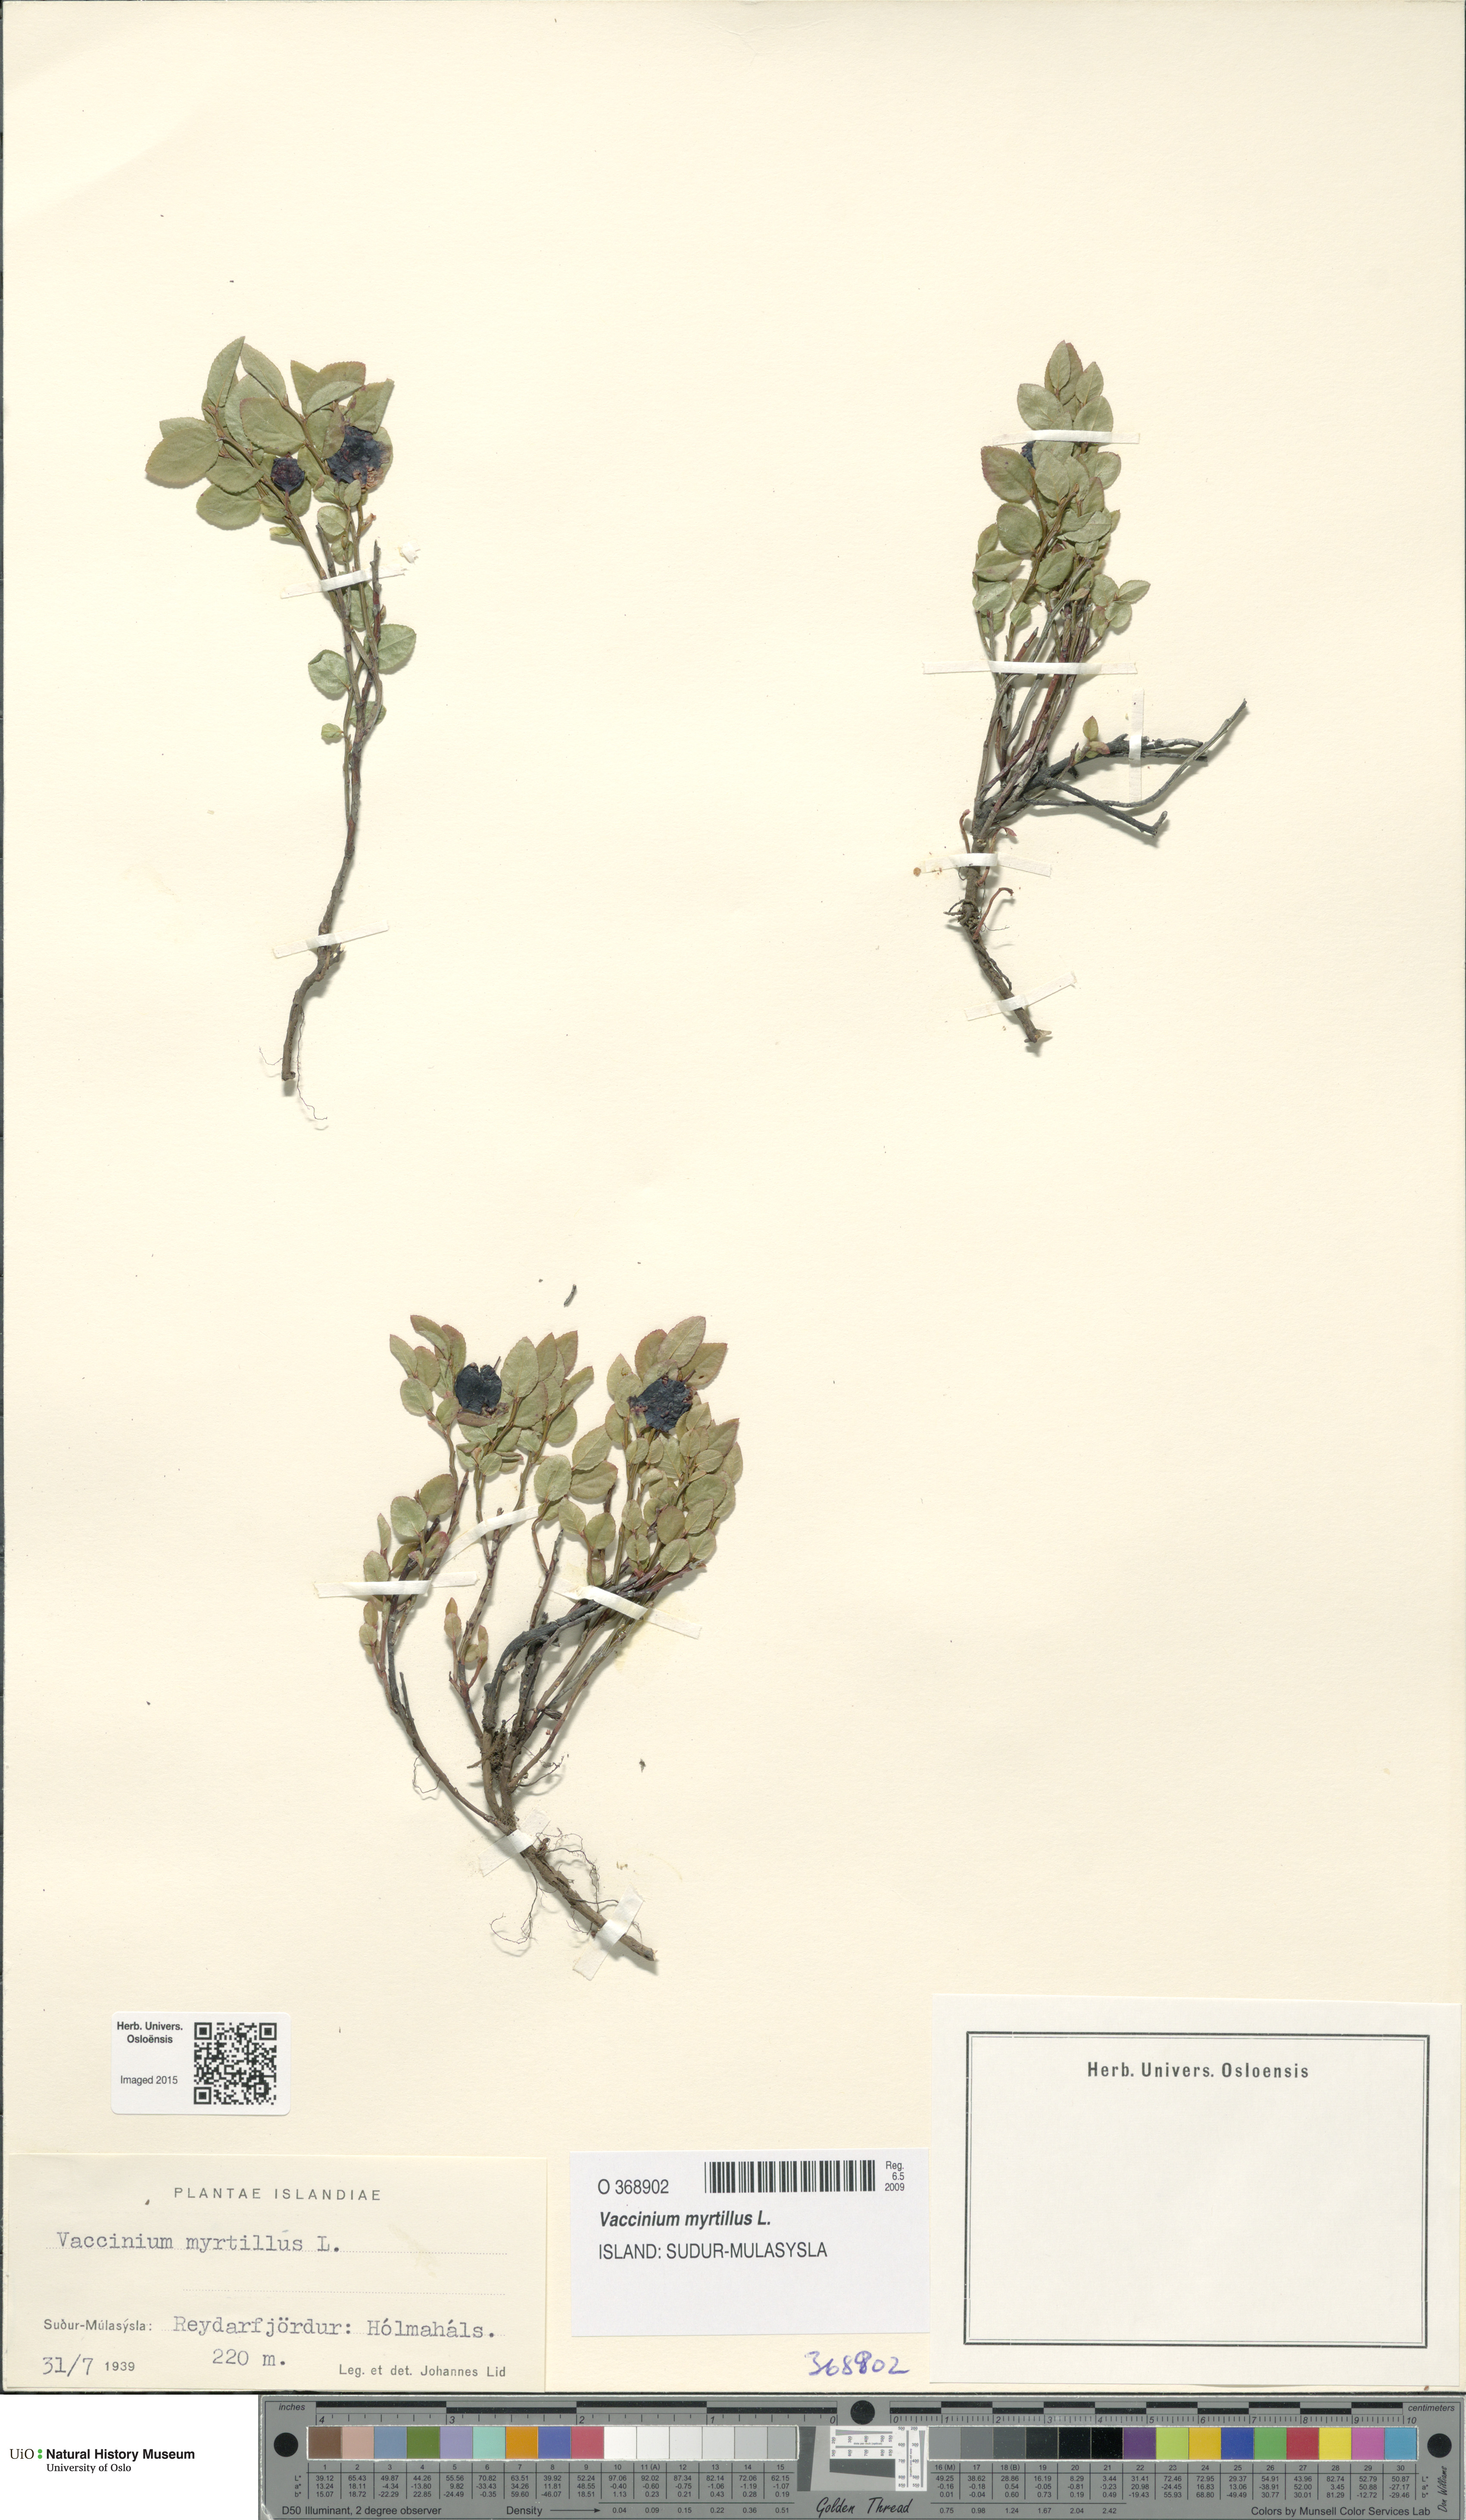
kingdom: Plantae
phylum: Tracheophyta
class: Magnoliopsida
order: Ericales
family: Ericaceae
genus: Vaccinium
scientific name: Vaccinium myrtillus
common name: Bilberry
